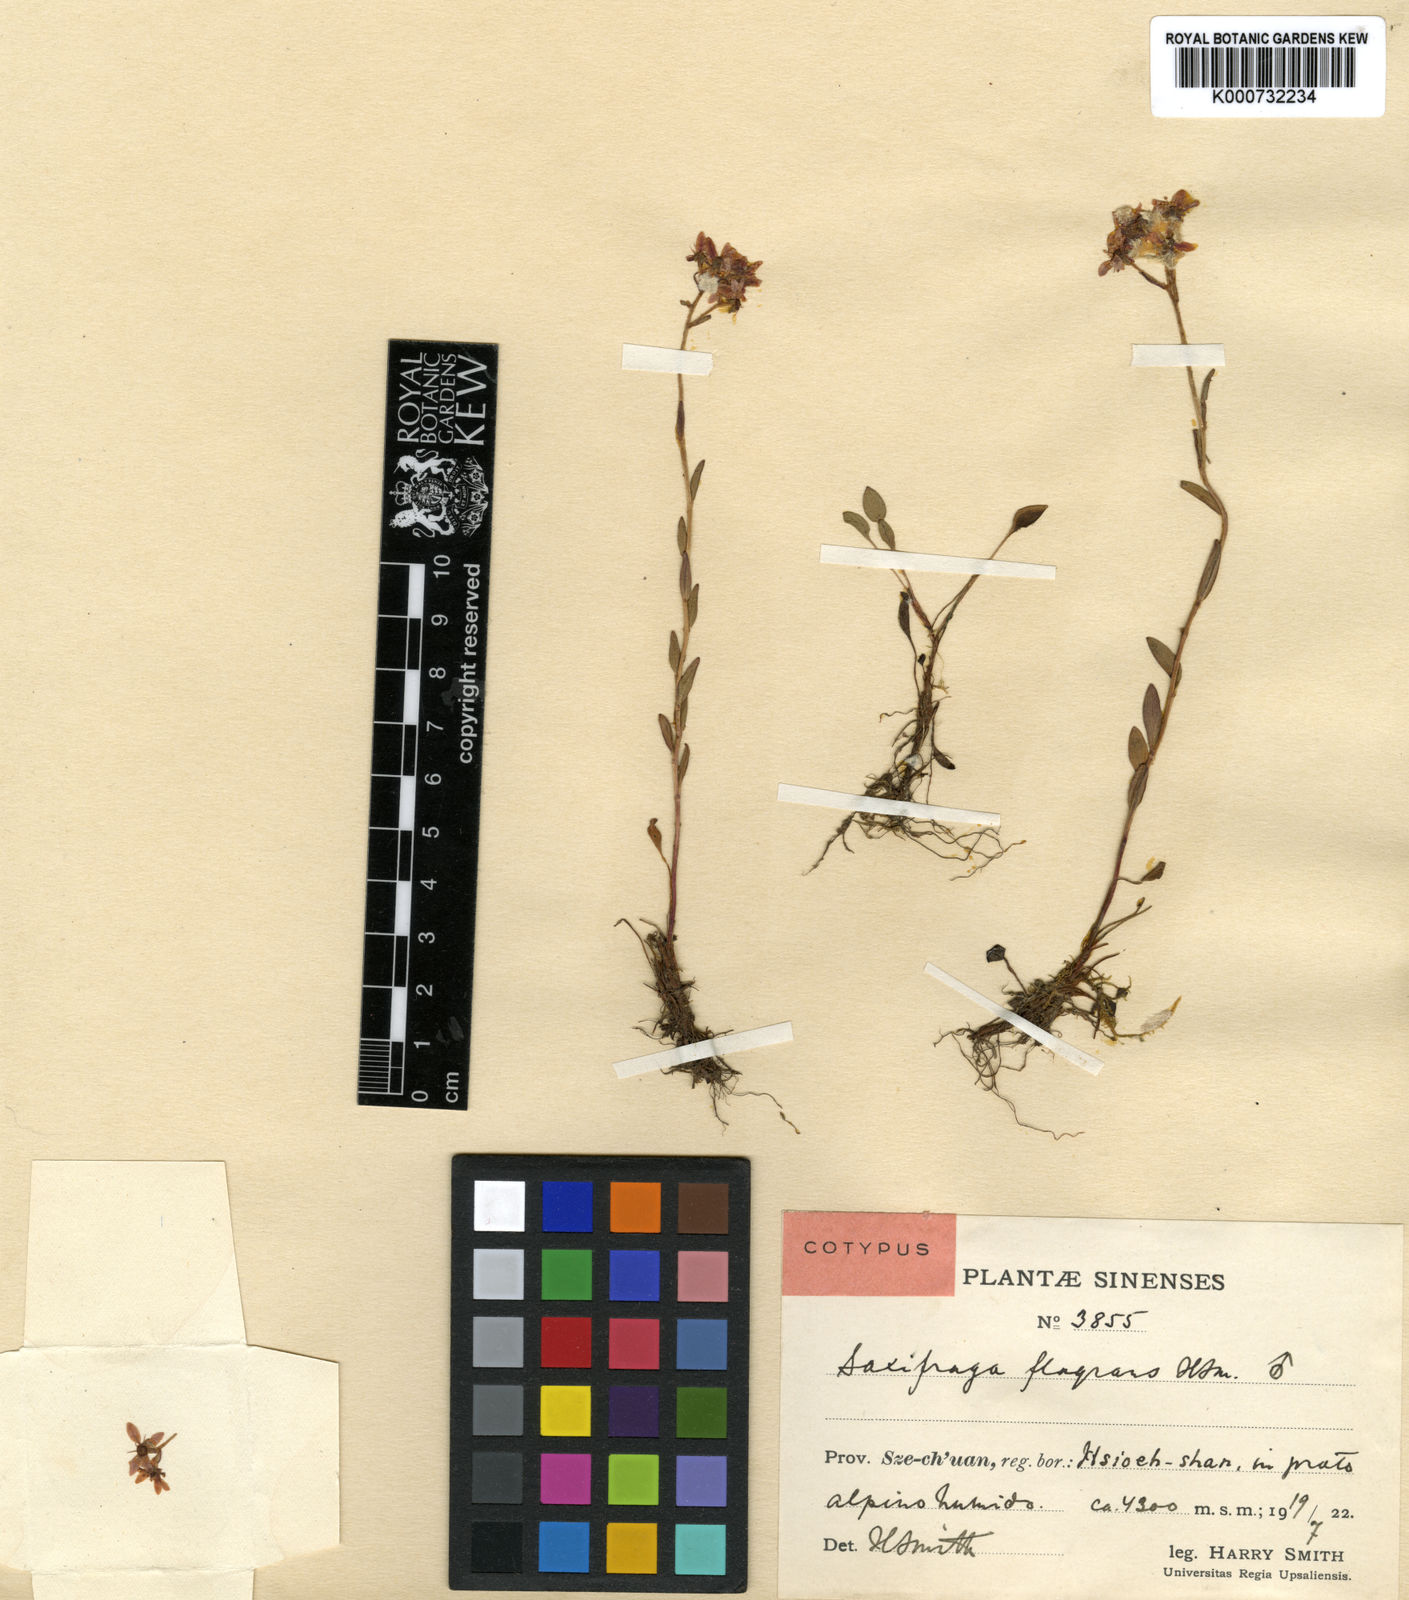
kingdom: Plantae
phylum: Tracheophyta
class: Magnoliopsida
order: Saxifragales
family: Saxifragaceae
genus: Saxifraga
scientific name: Saxifraga imparilis
